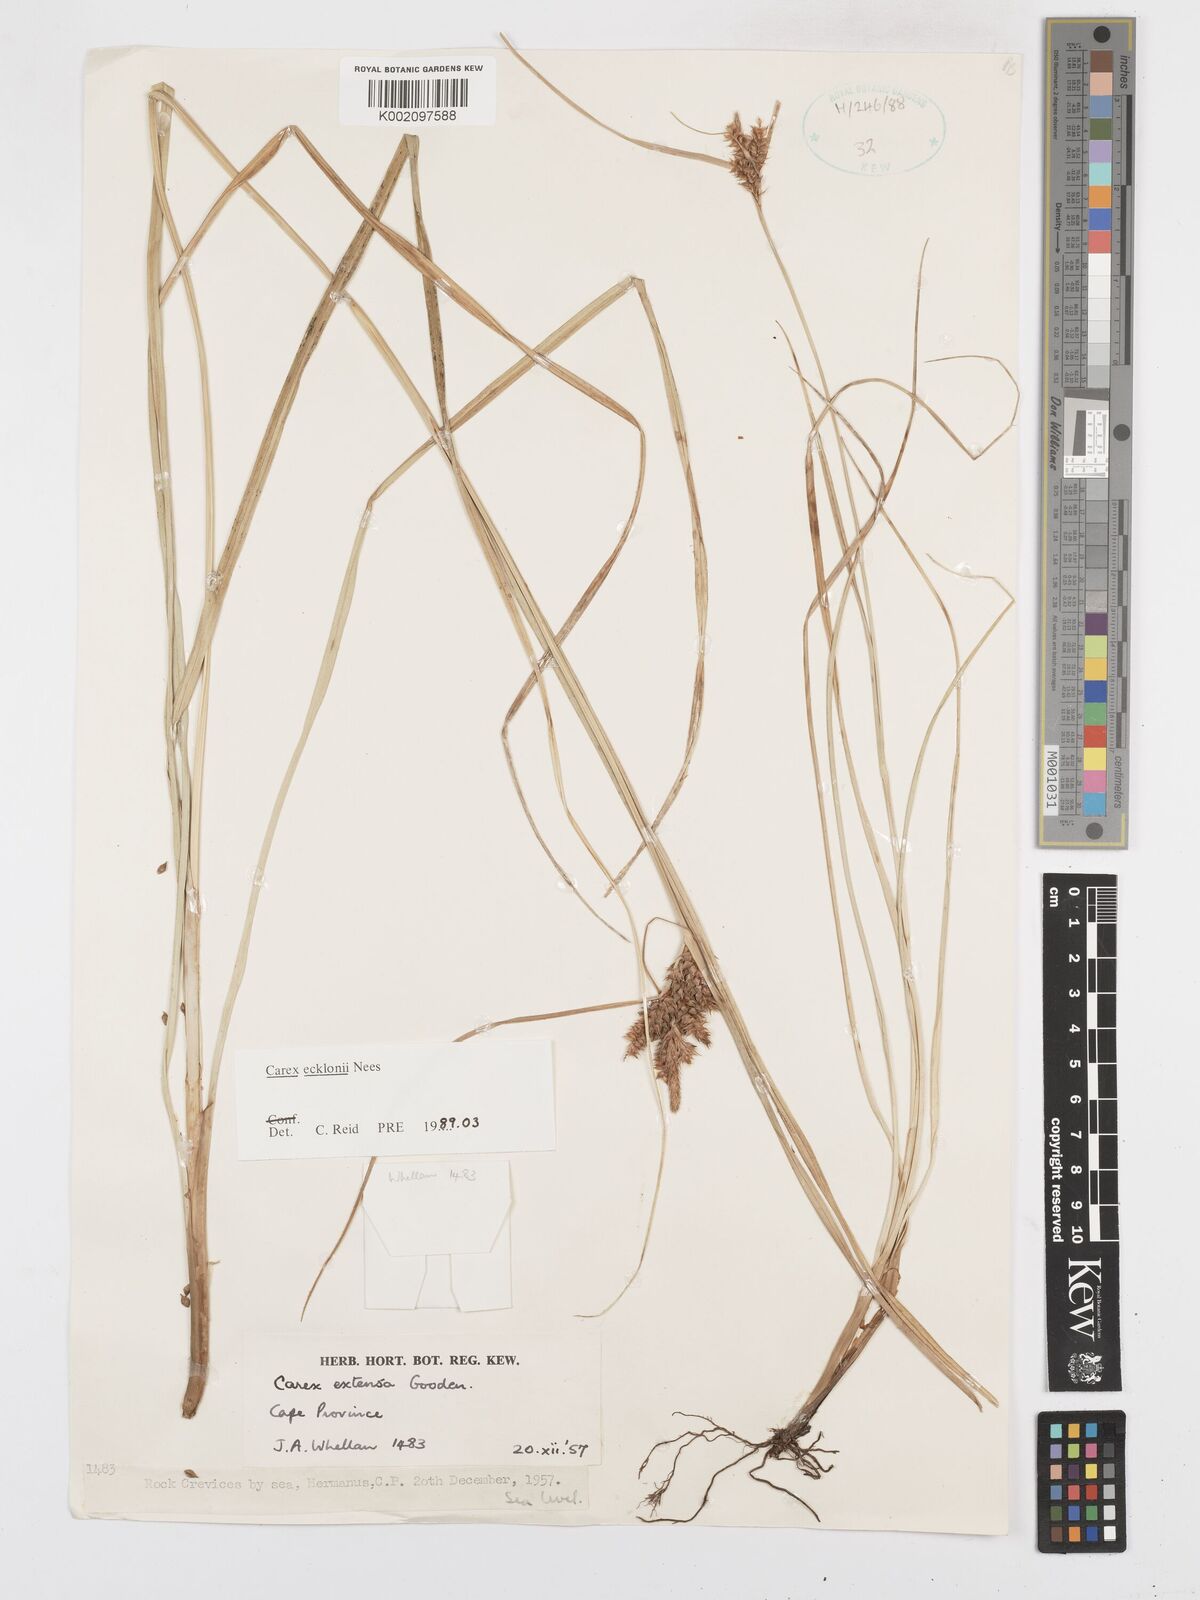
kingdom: Plantae
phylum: Tracheophyta
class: Liliopsida
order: Poales
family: Cyperaceae
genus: Carex
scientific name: Carex extensa
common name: Long-bracted sedge
